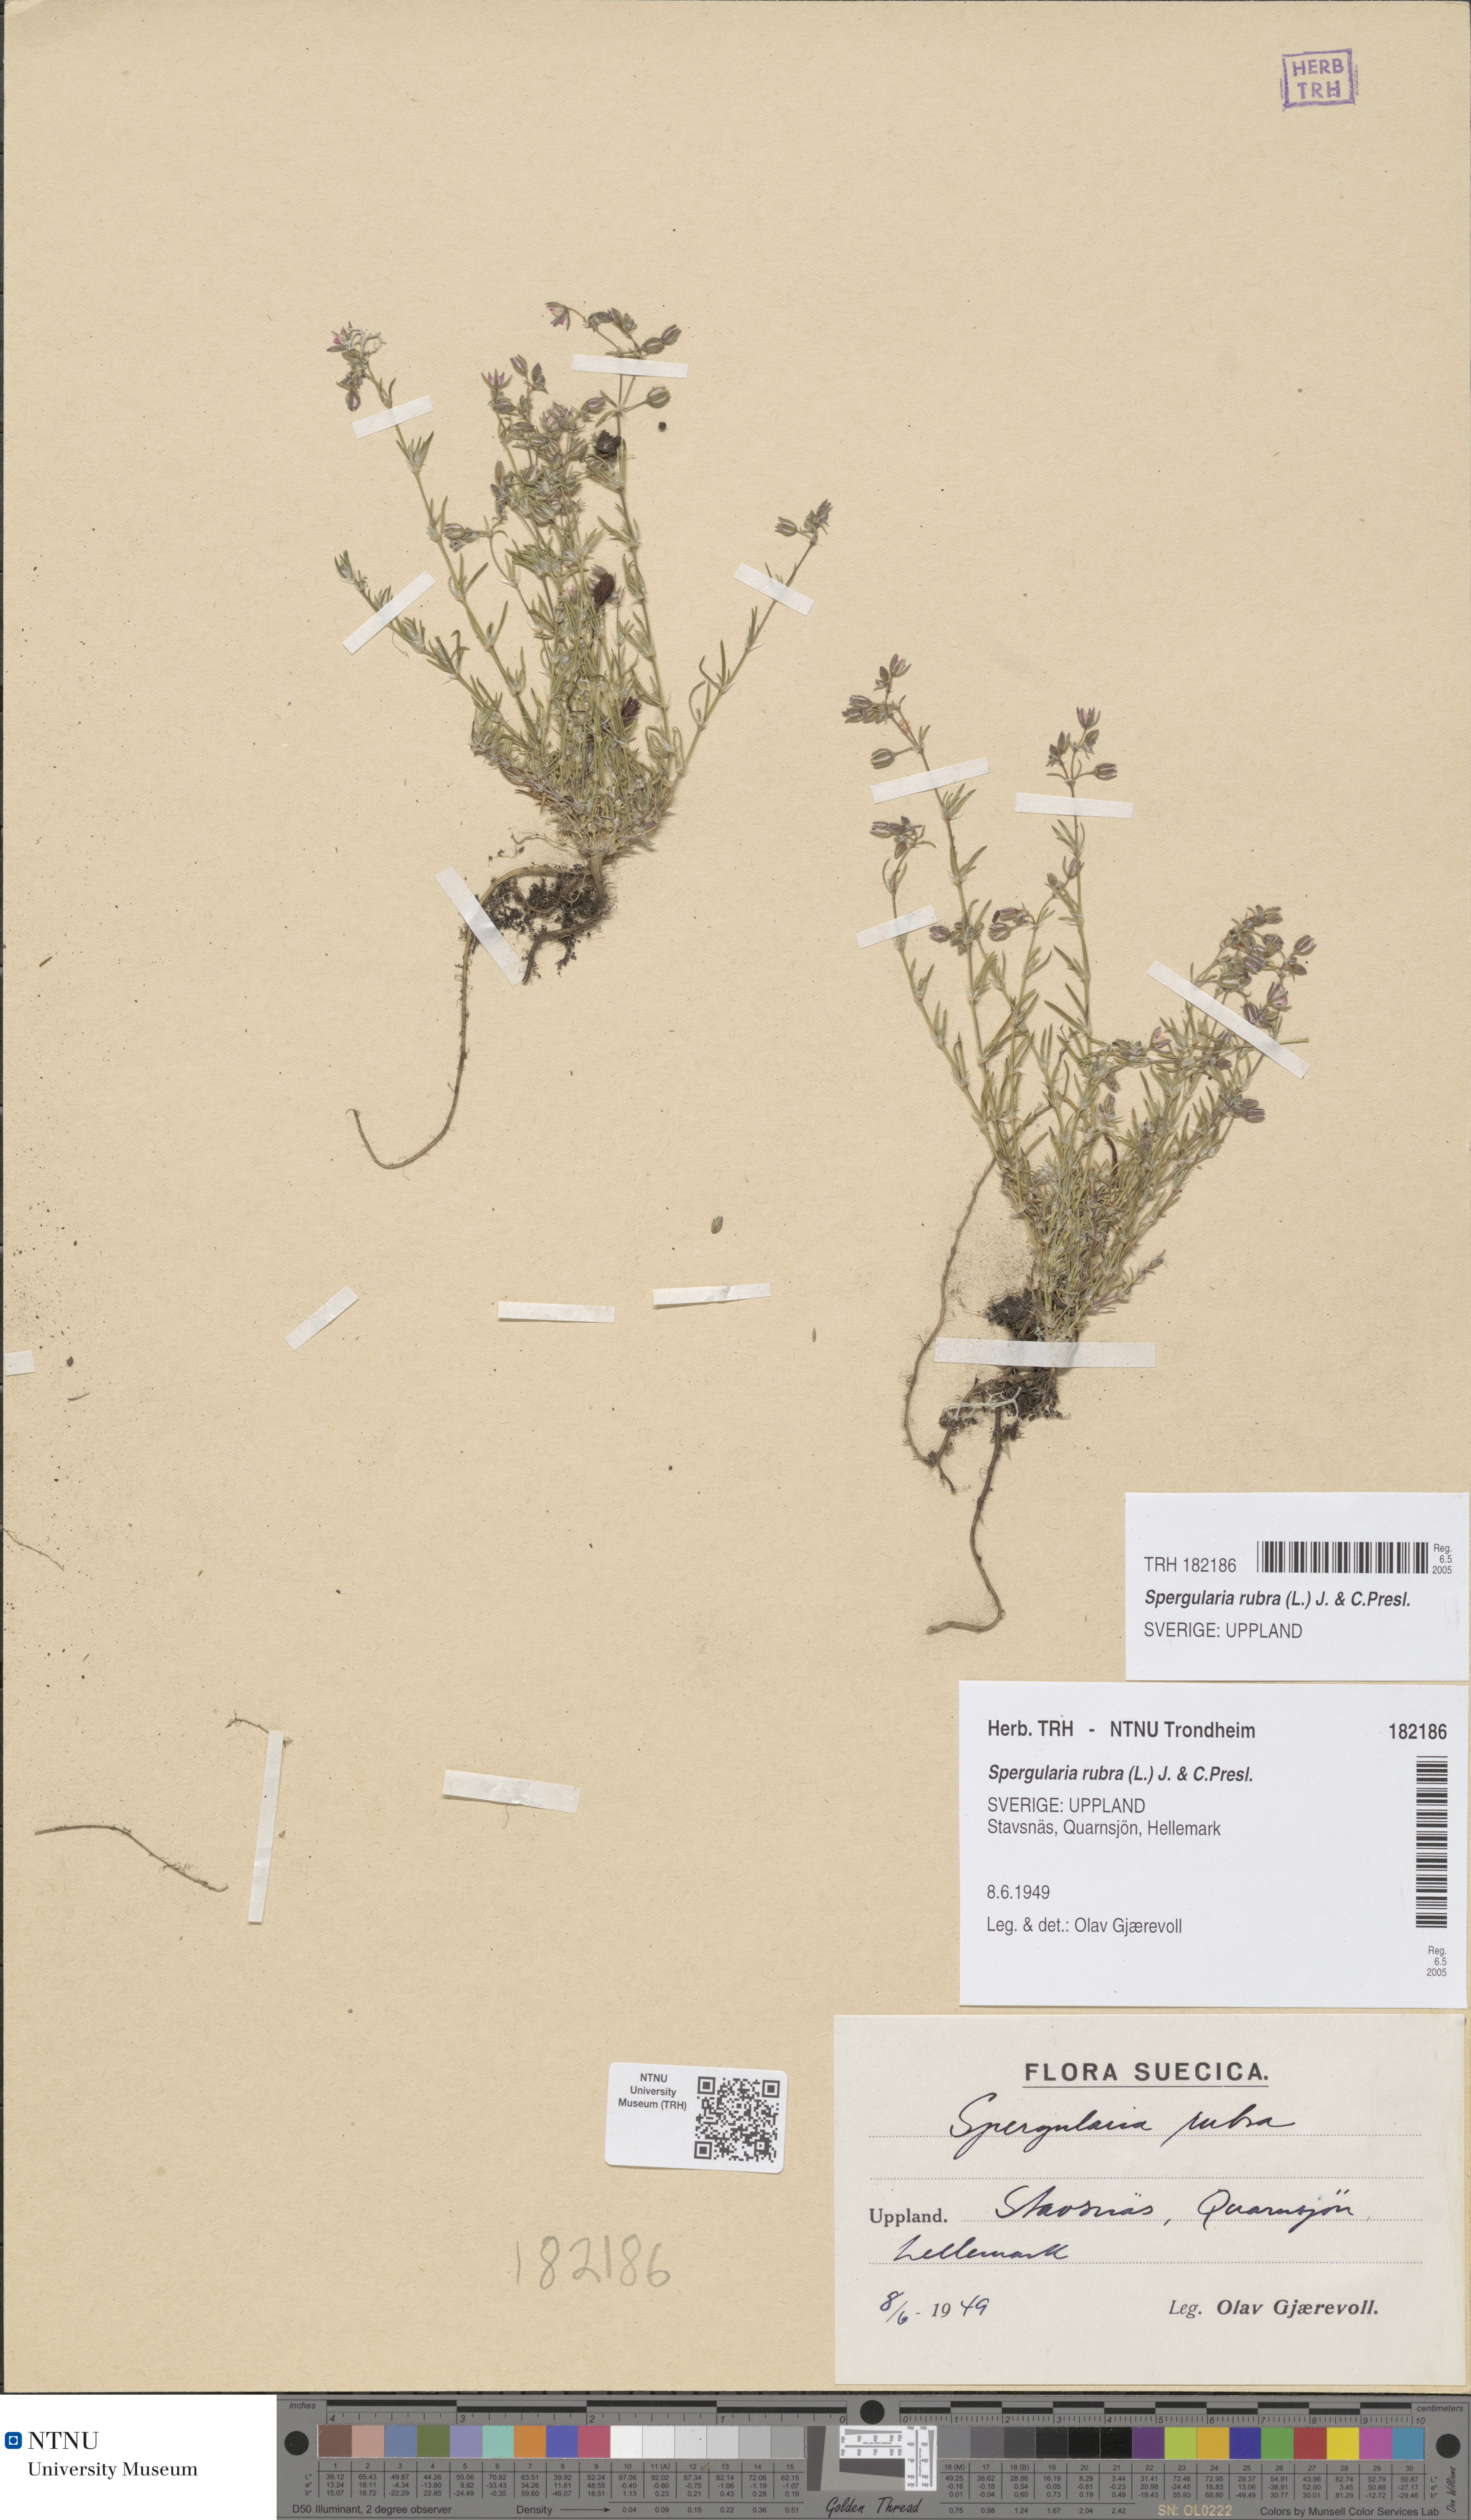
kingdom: Plantae
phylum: Tracheophyta
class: Magnoliopsida
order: Caryophyllales
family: Caryophyllaceae
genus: Spergularia
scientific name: Spergularia rubra
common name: Red sand-spurrey
